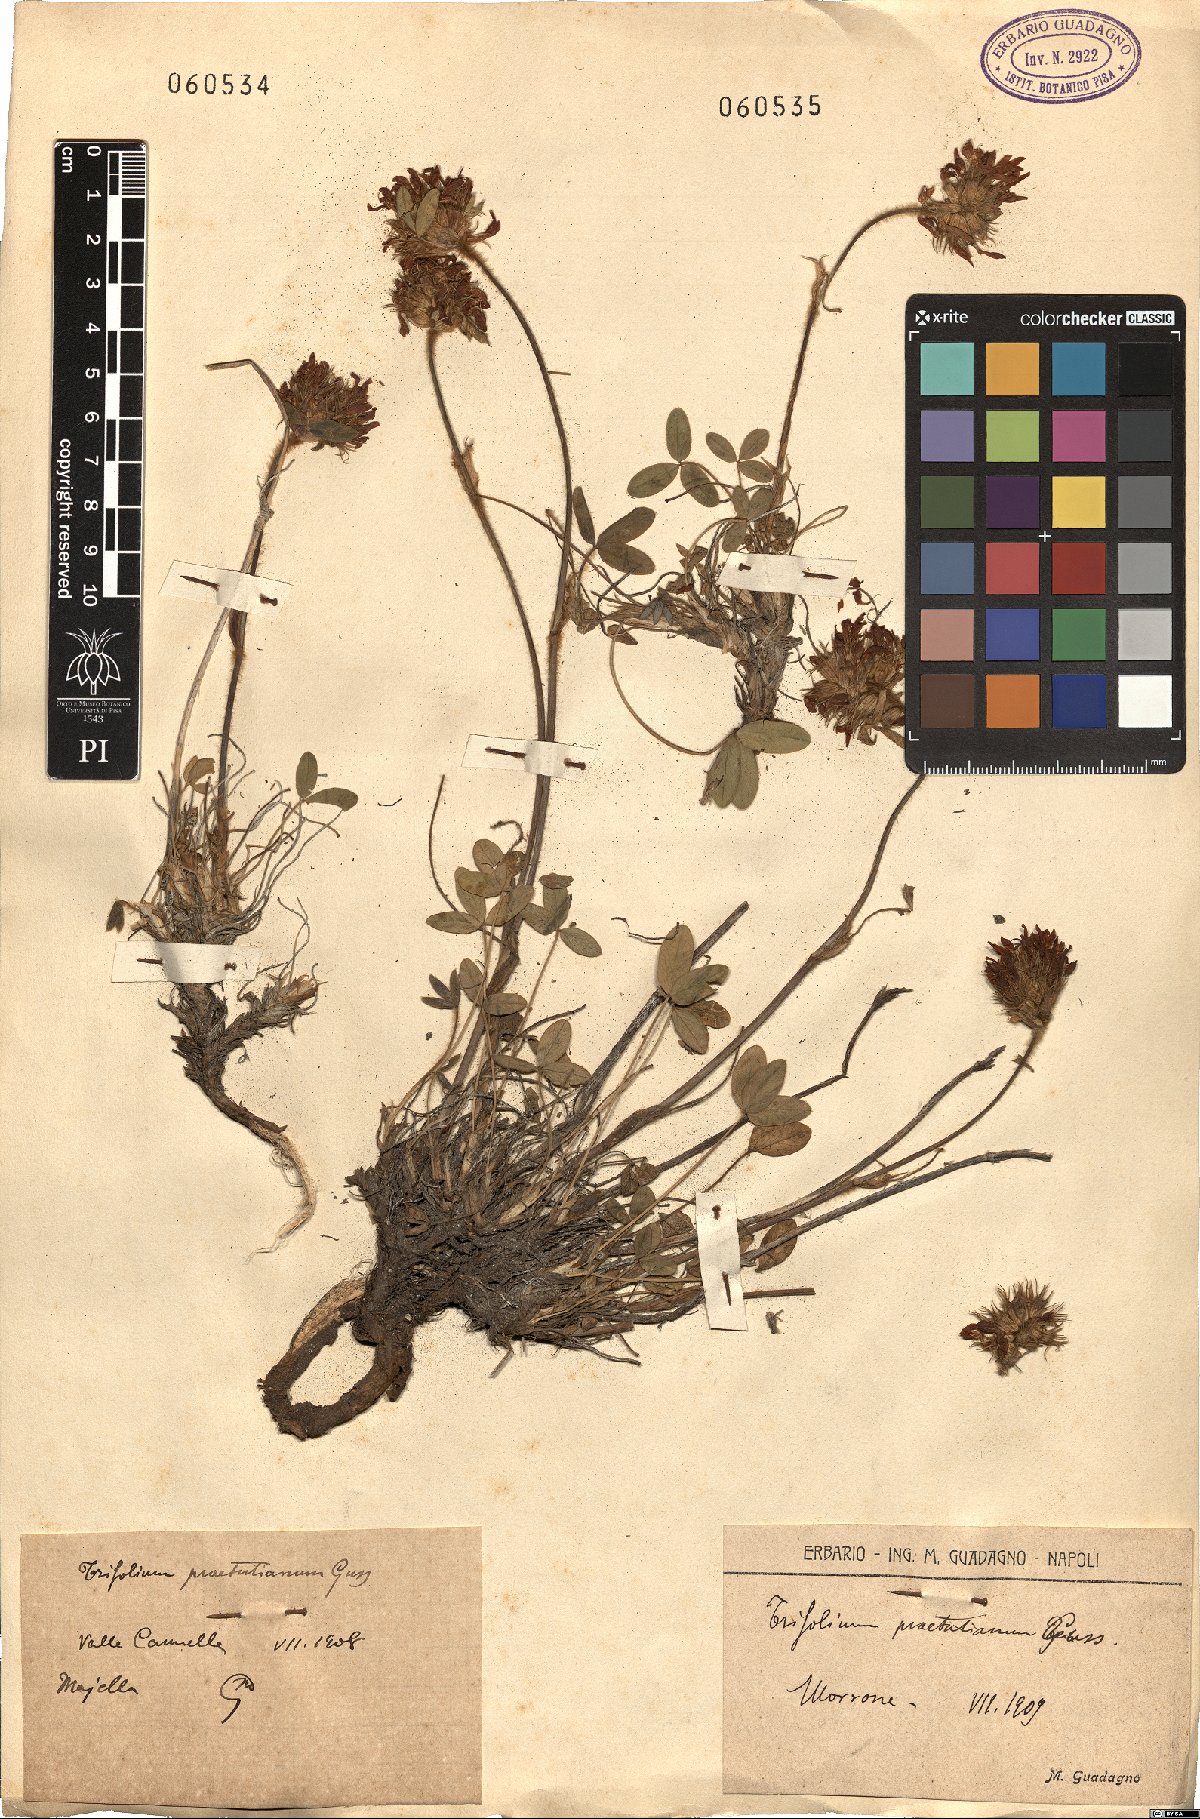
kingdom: Plantae
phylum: Tracheophyta
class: Magnoliopsida
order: Fabales
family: Fabaceae
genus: Trifolium
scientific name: Trifolium noricum
